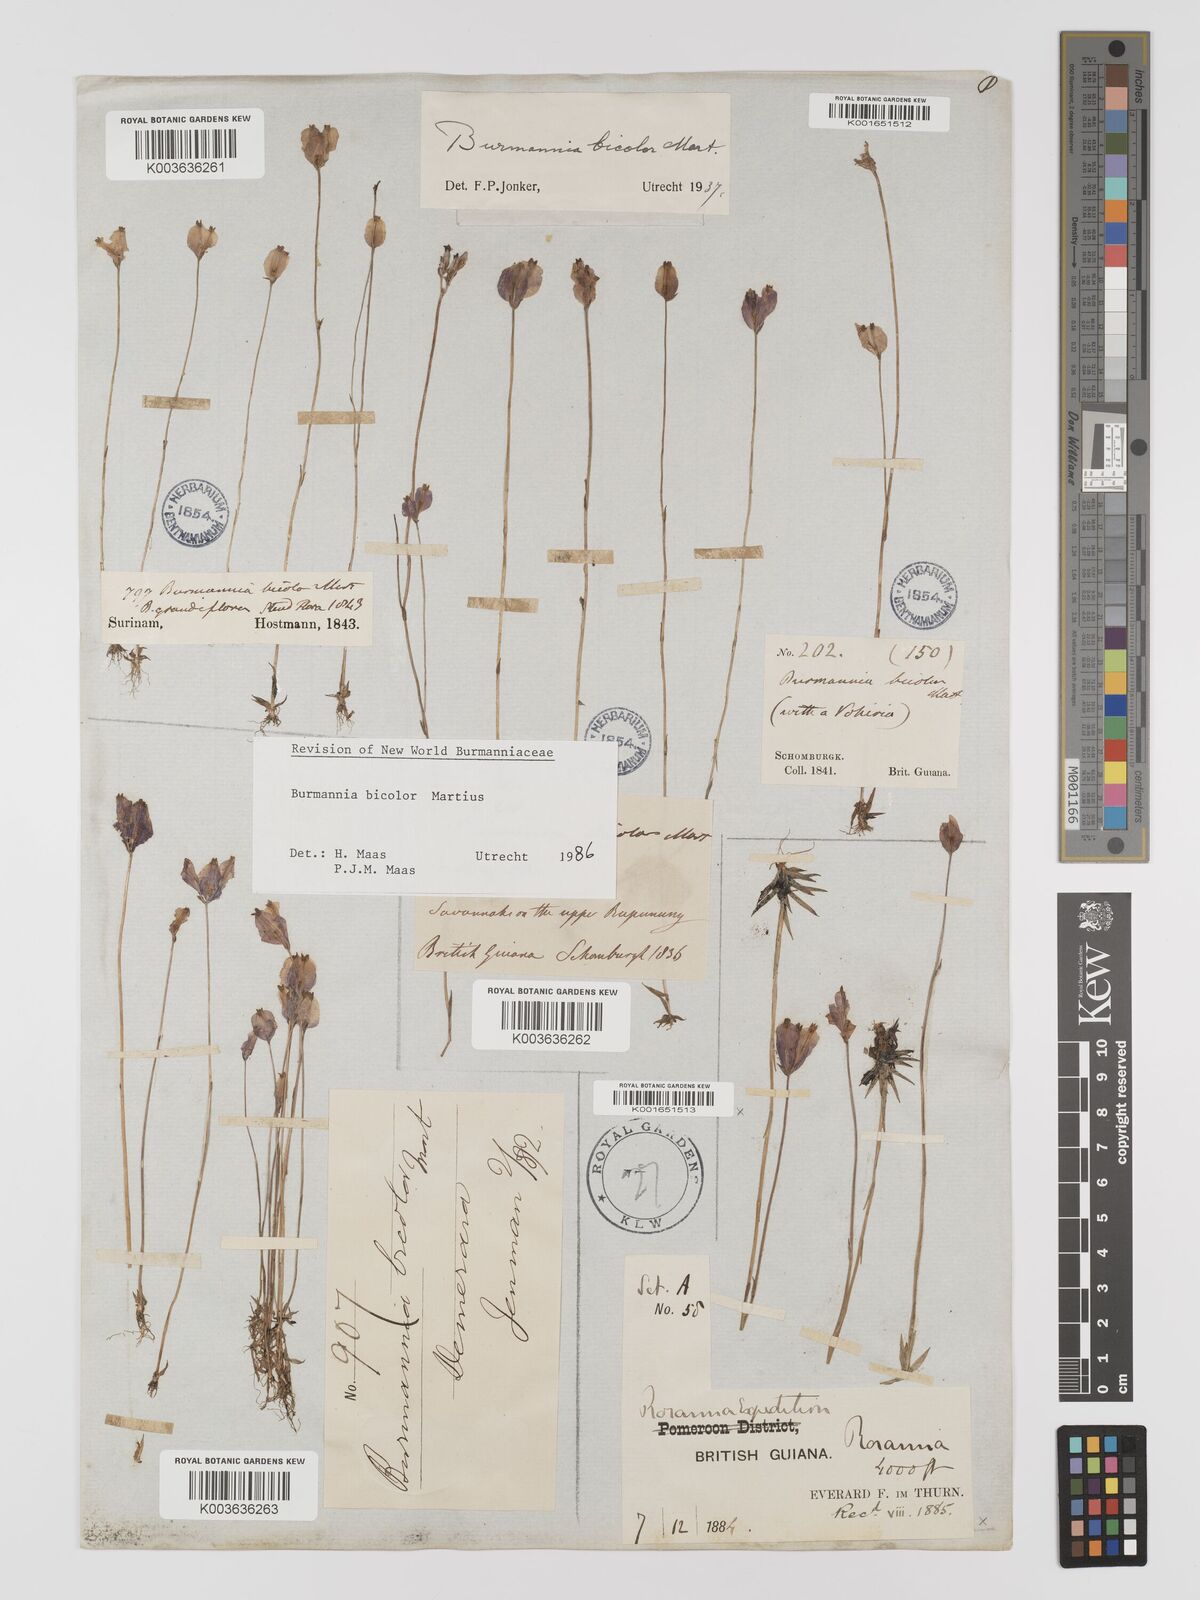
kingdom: Plantae
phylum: Tracheophyta
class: Liliopsida
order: Dioscoreales
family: Burmanniaceae
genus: Burmannia
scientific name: Burmannia bicolor
